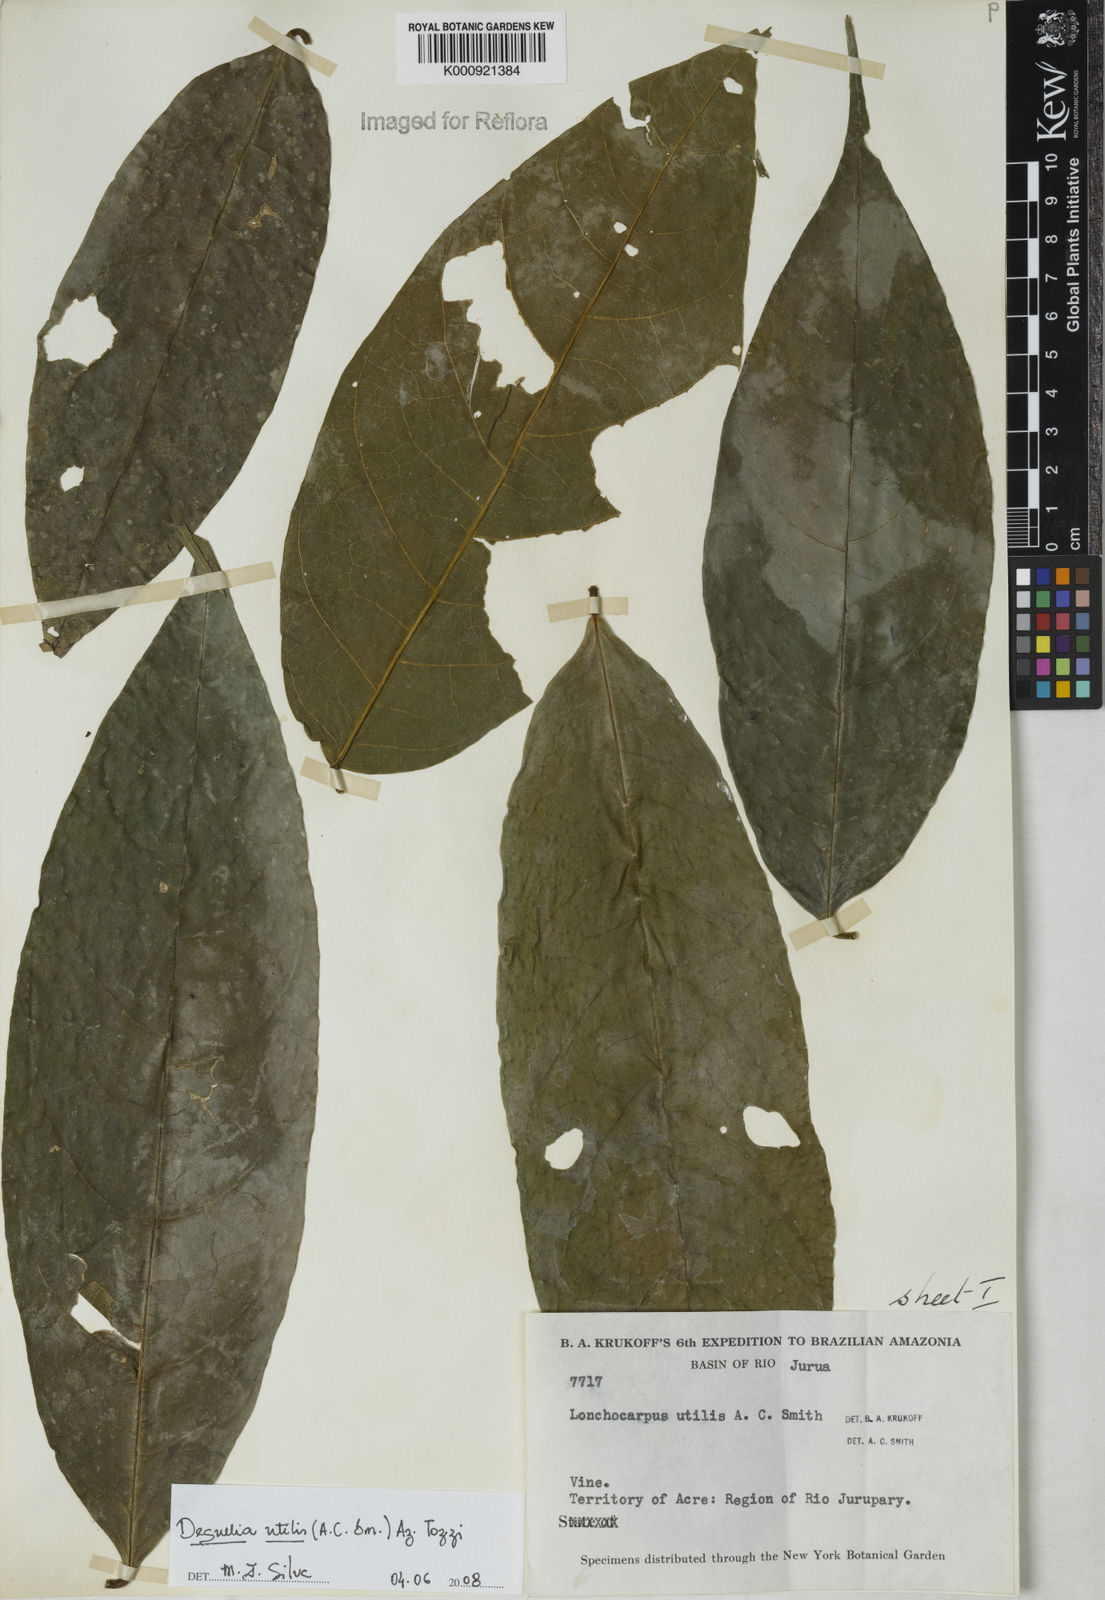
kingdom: Plantae
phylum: Tracheophyta
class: Magnoliopsida
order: Fabales
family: Fabaceae
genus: Deguelia
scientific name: Deguelia utilis
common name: Timbo
